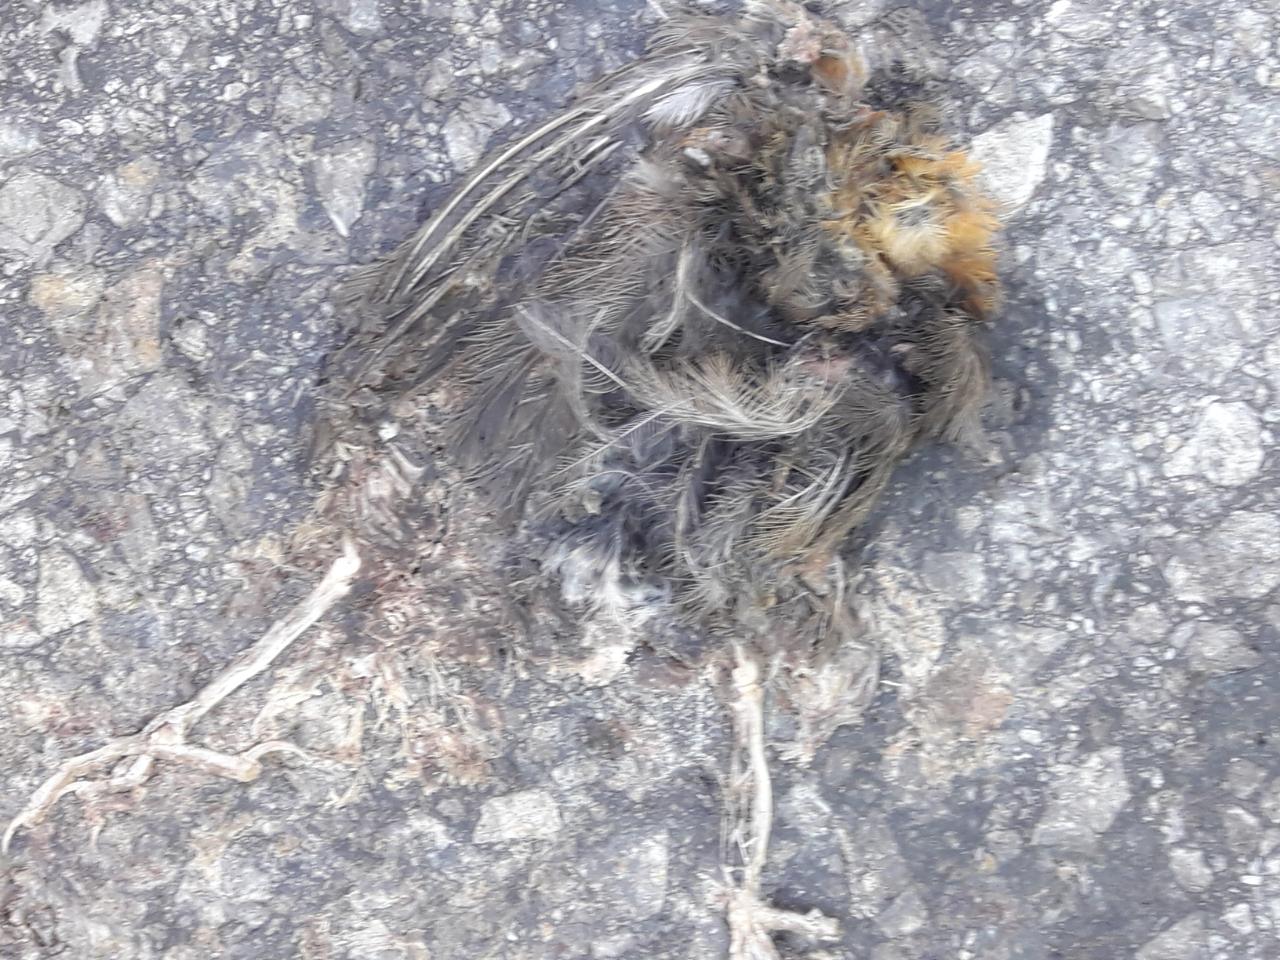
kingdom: Animalia
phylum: Chordata
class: Aves
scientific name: Aves
